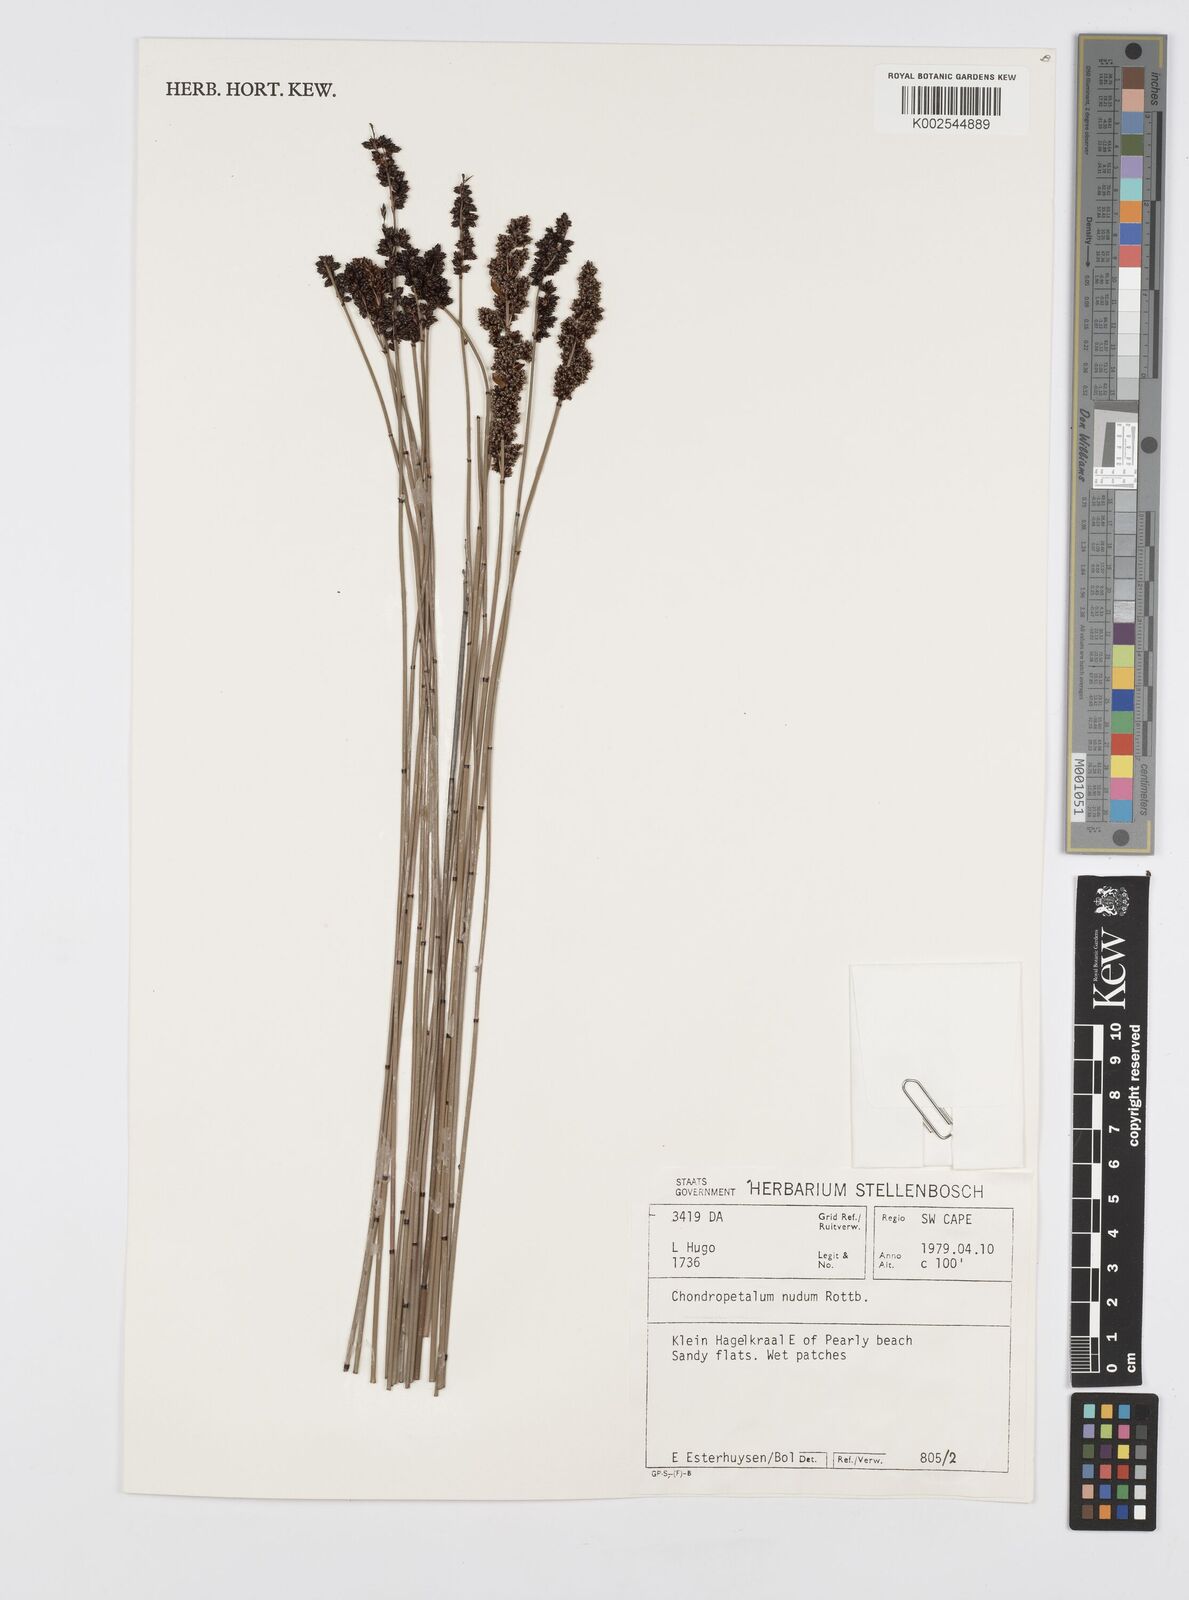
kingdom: Plantae
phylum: Tracheophyta
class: Liliopsida
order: Poales
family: Restionaceae
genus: Elegia
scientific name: Elegia nuda
